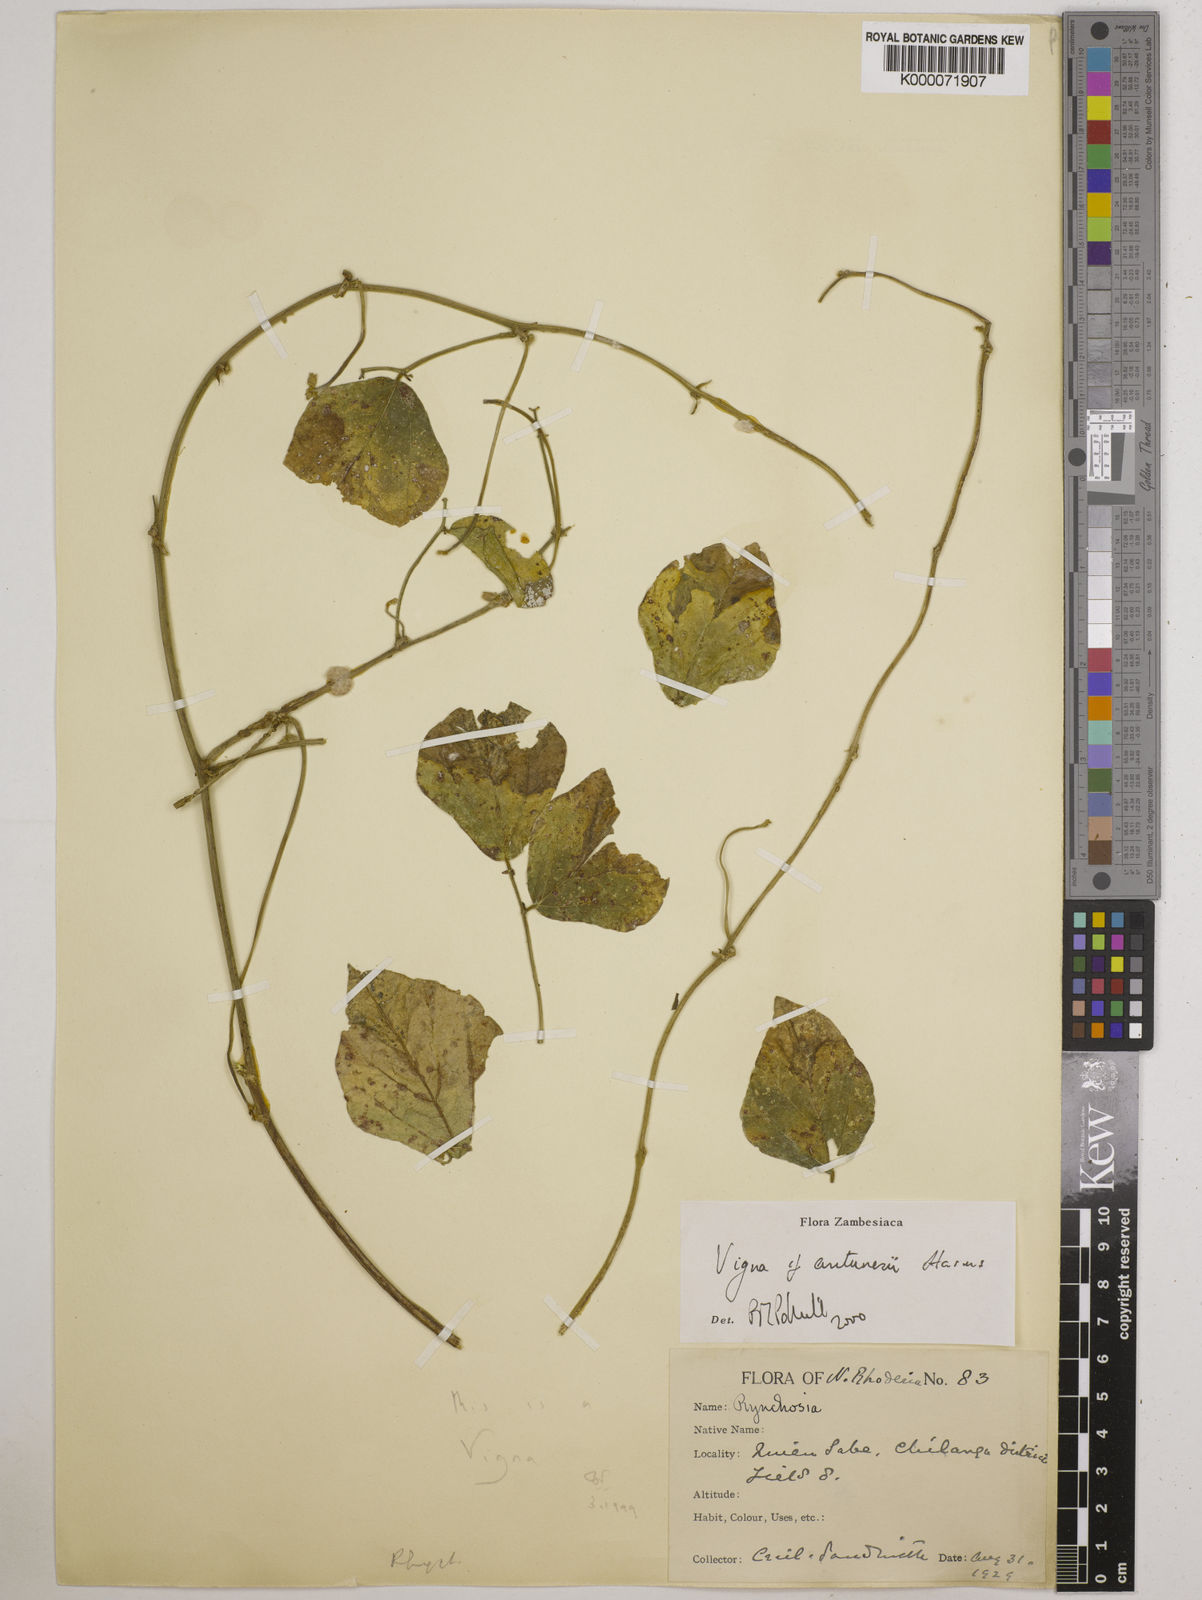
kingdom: Plantae
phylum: Tracheophyta
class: Magnoliopsida
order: Fabales
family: Fabaceae
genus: Vigna
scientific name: Vigna antunesii
